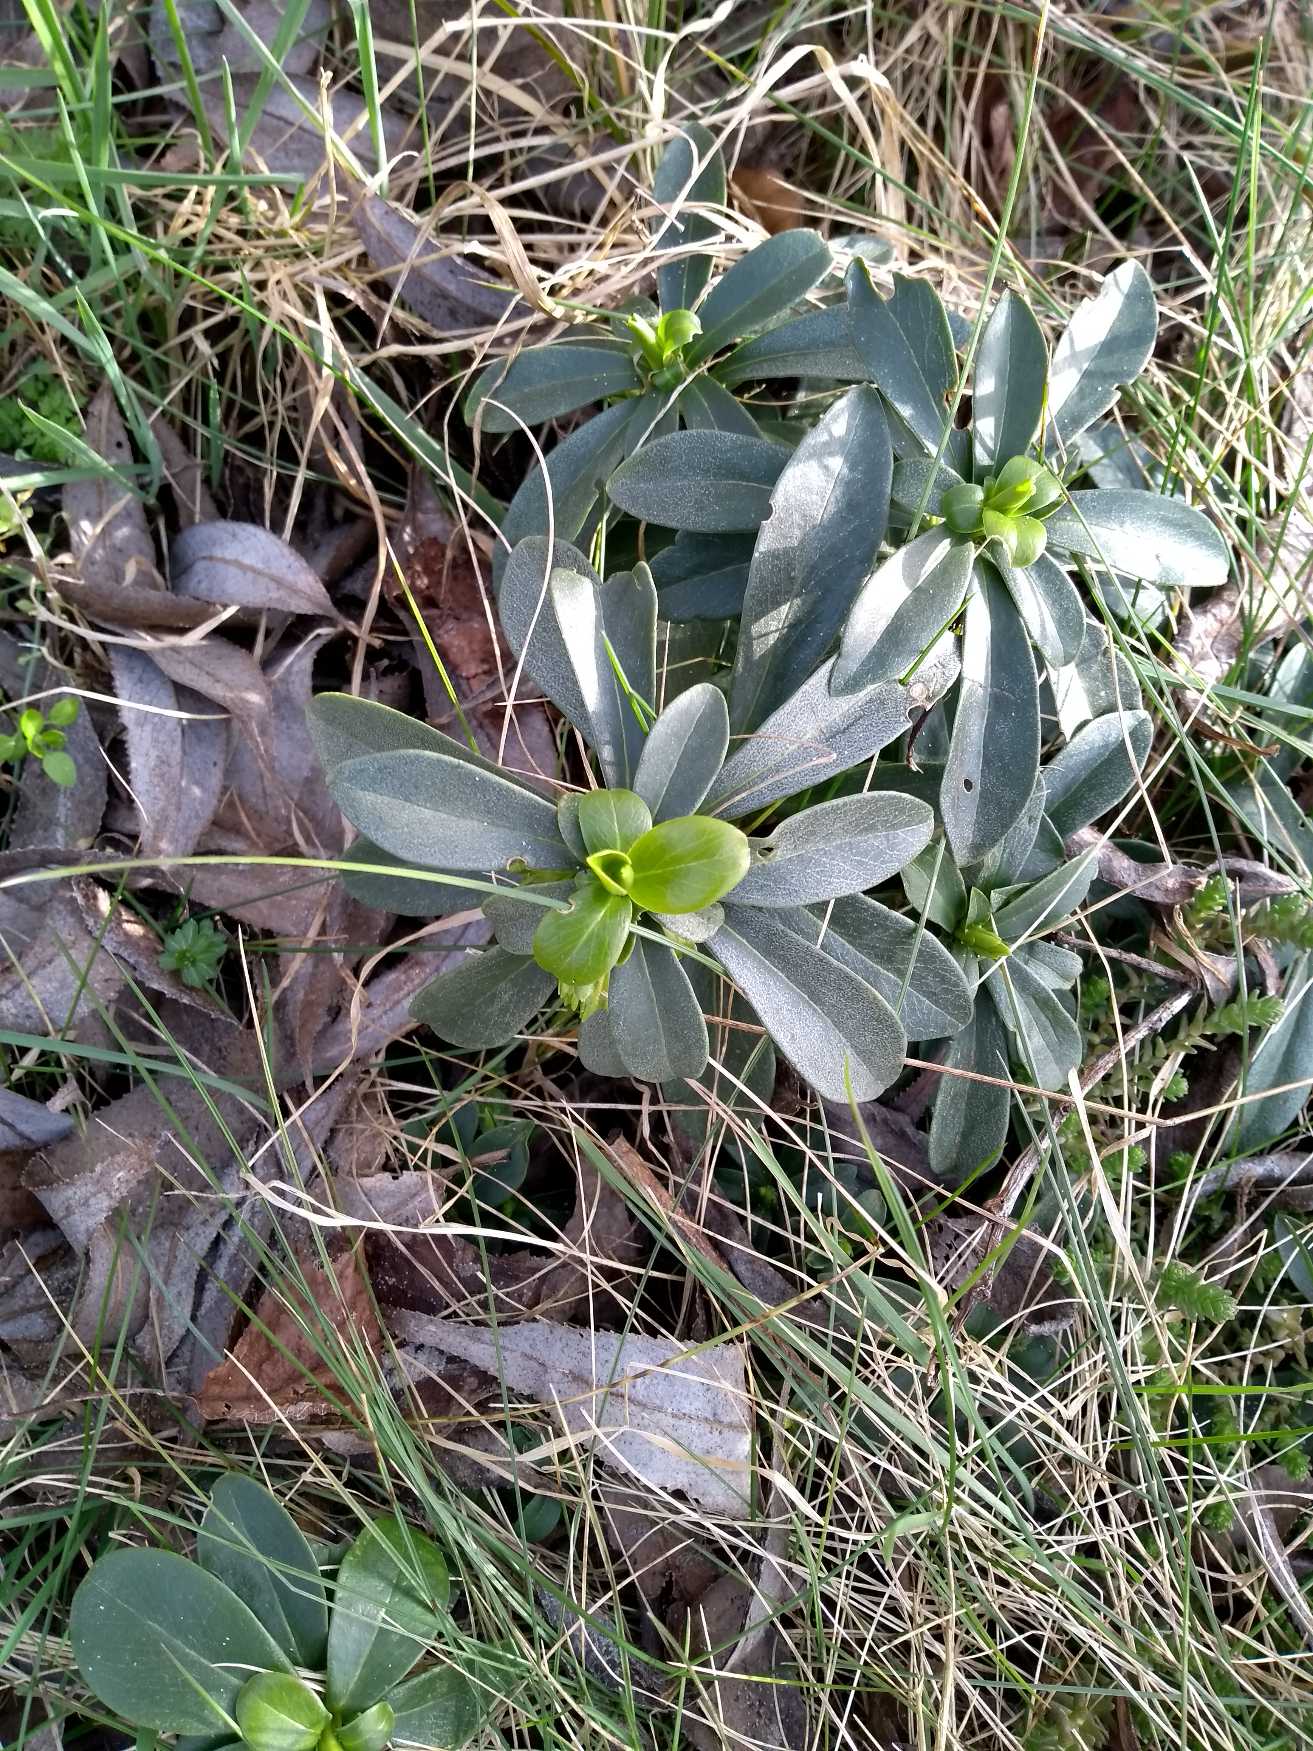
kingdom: Plantae
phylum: Tracheophyta
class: Magnoliopsida
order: Malvales
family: Thymelaeaceae
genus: Daphne
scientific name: Daphne laureola
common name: Laurbær-dafne
